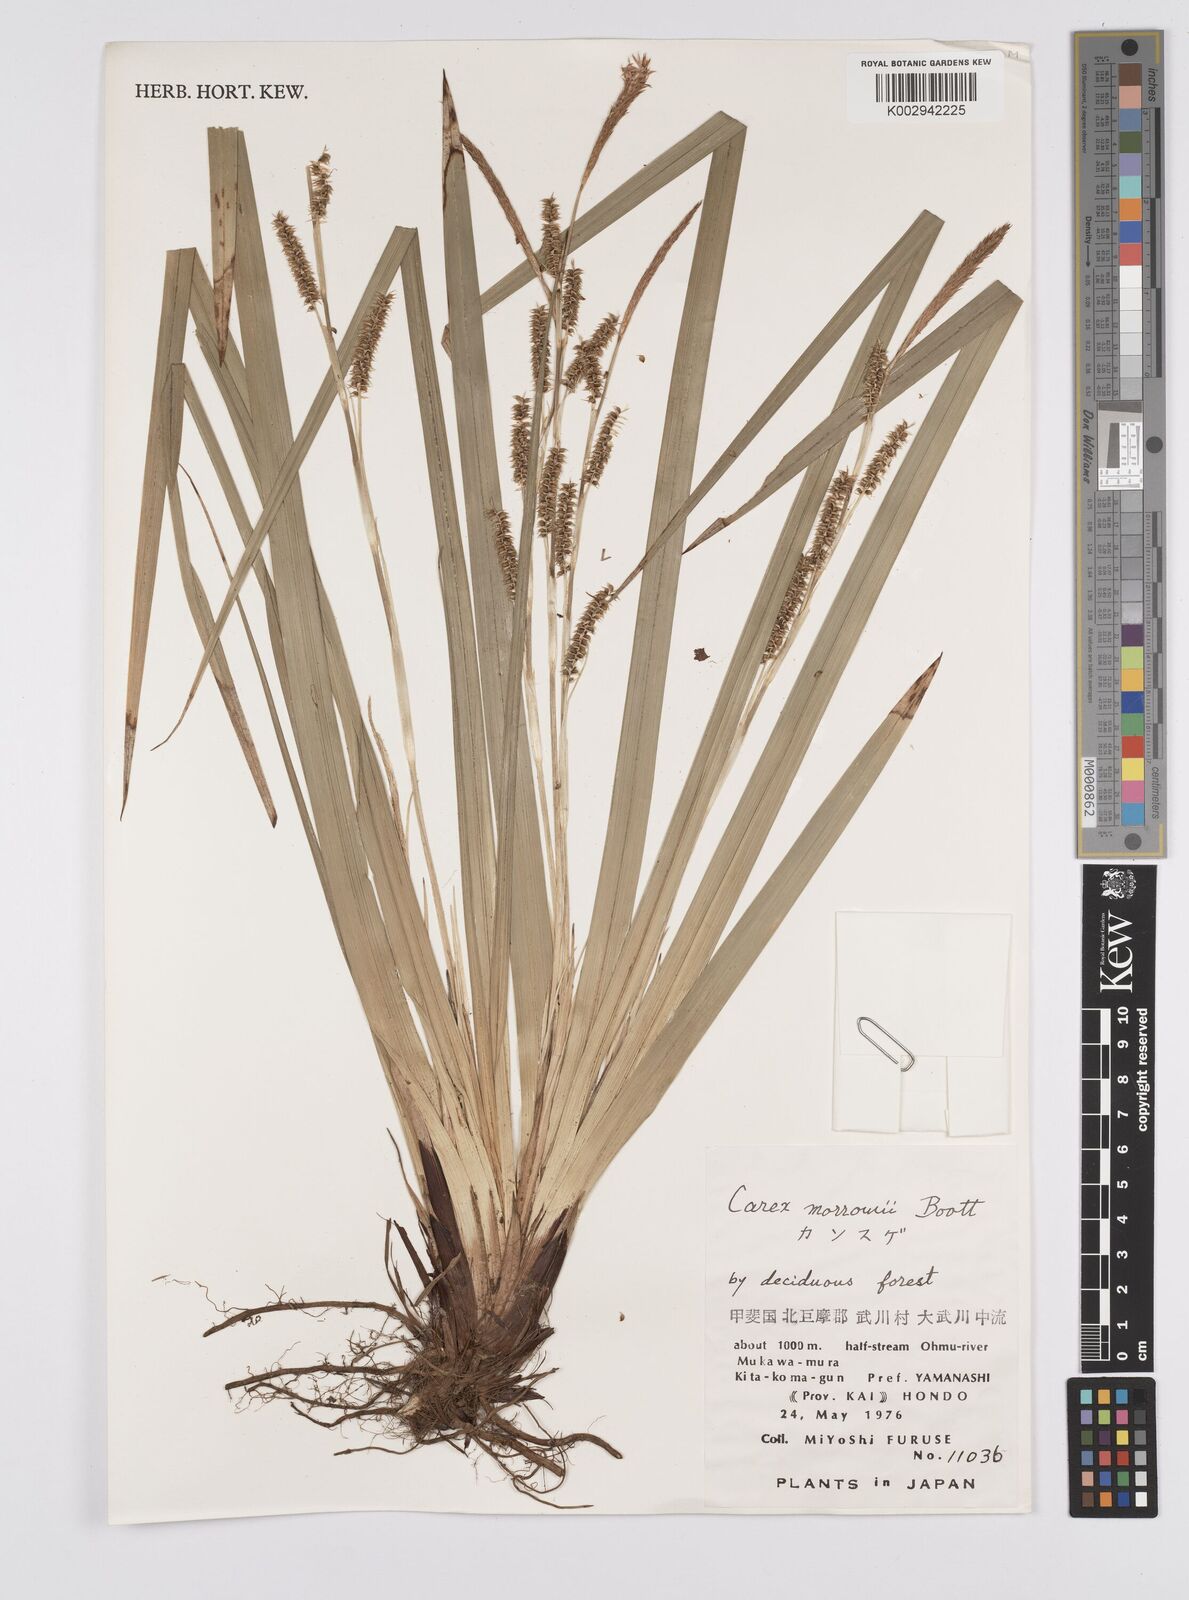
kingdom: Plantae
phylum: Tracheophyta
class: Liliopsida
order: Poales
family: Cyperaceae
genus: Carex
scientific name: Carex morrowii
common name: Japanese sedge
